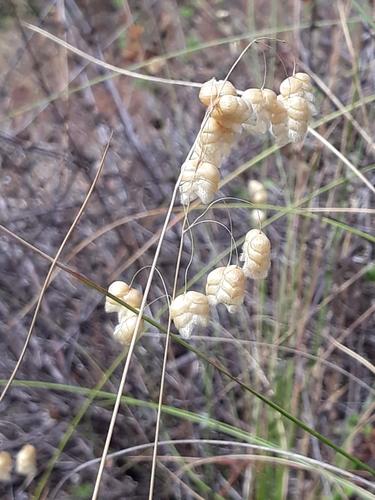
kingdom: Plantae
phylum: Tracheophyta
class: Liliopsida
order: Poales
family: Poaceae
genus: Briza
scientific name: Briza maxima
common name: Big quakinggrass
